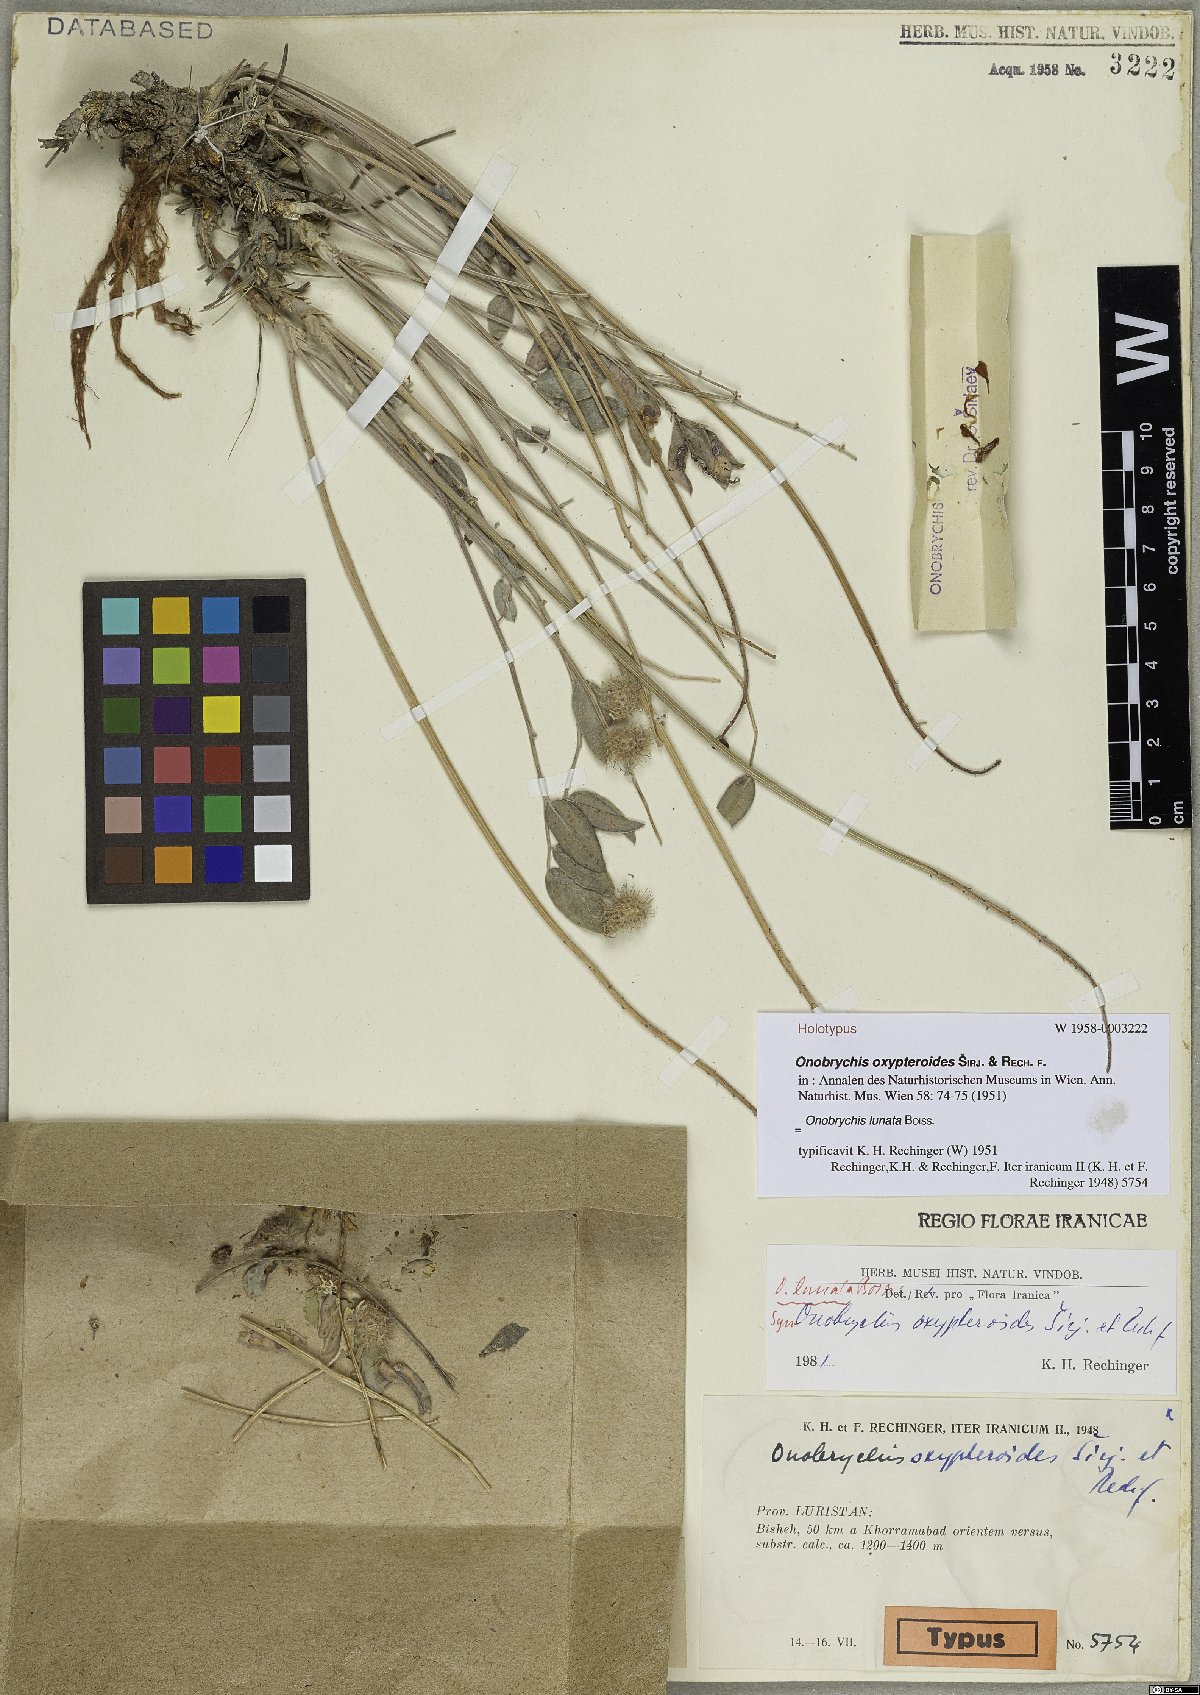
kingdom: Plantae
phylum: Tracheophyta
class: Magnoliopsida
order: Fabales
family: Fabaceae
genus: Onobrychis
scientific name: Onobrychis lunata
